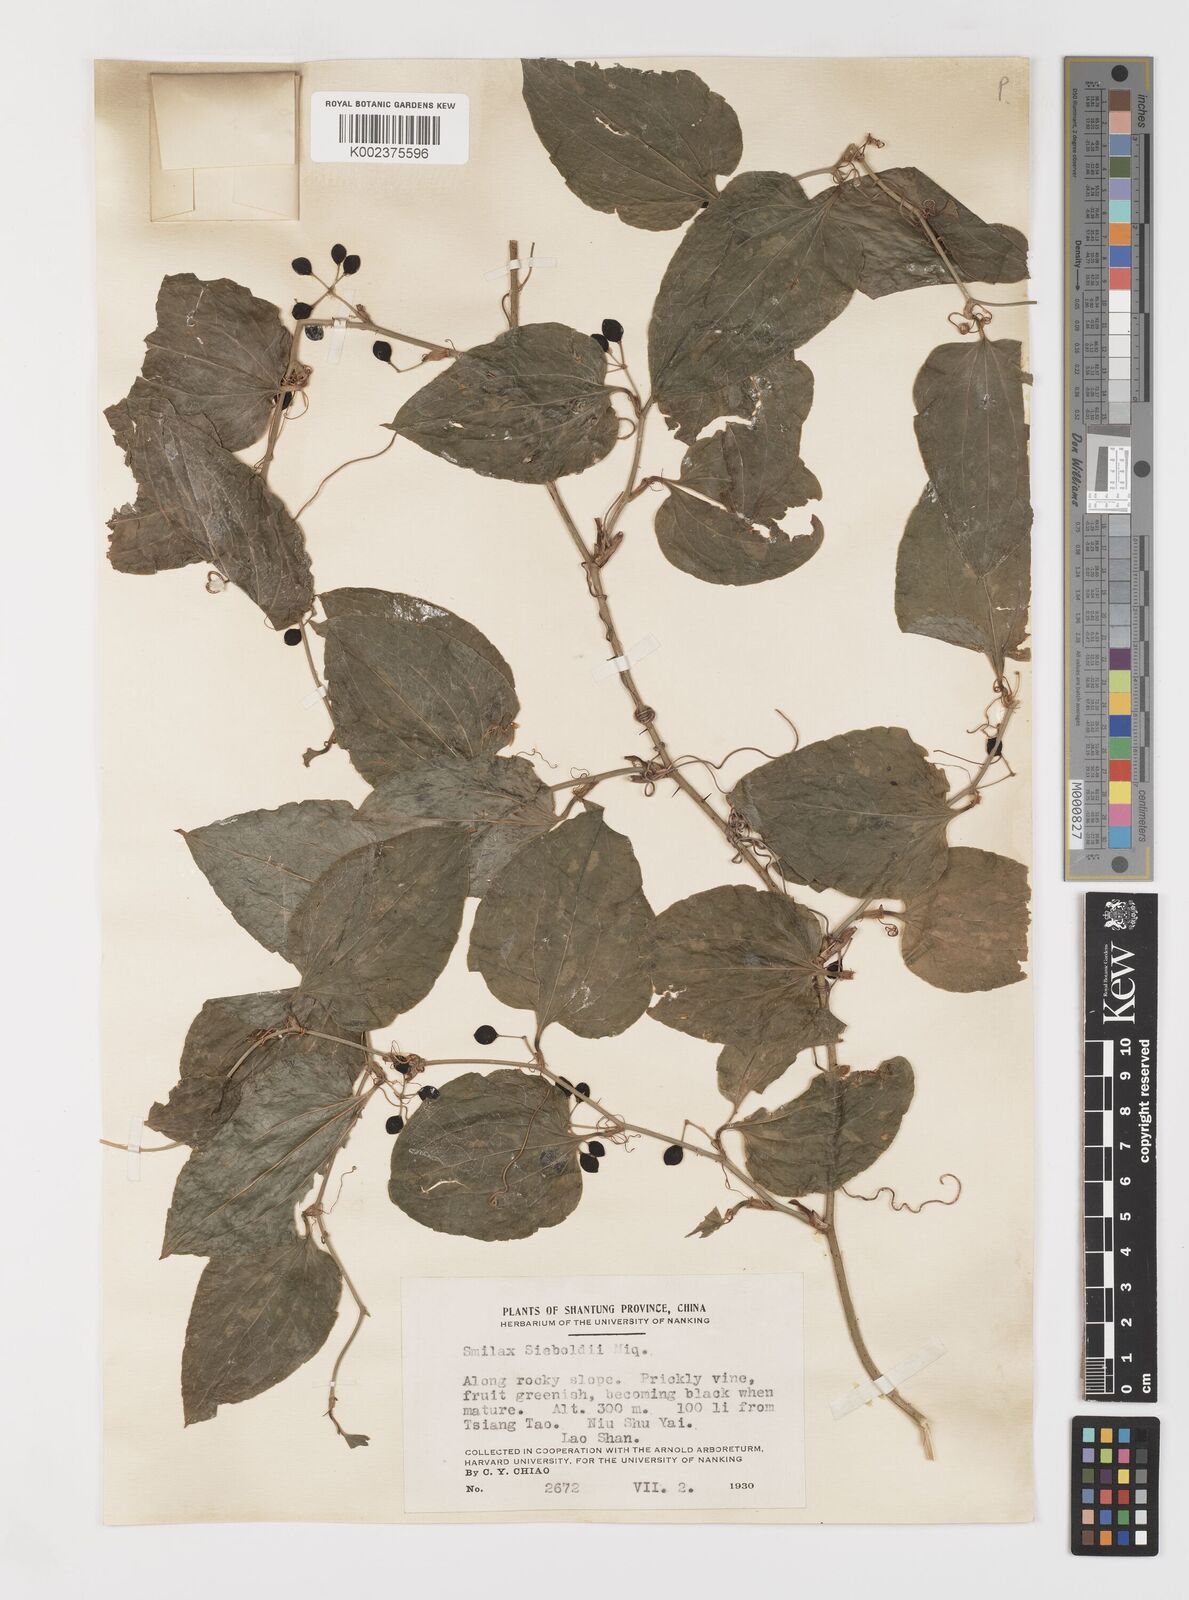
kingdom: Plantae
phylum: Tracheophyta
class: Liliopsida
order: Liliales
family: Smilacaceae
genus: Smilax
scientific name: Smilax sieboldii
